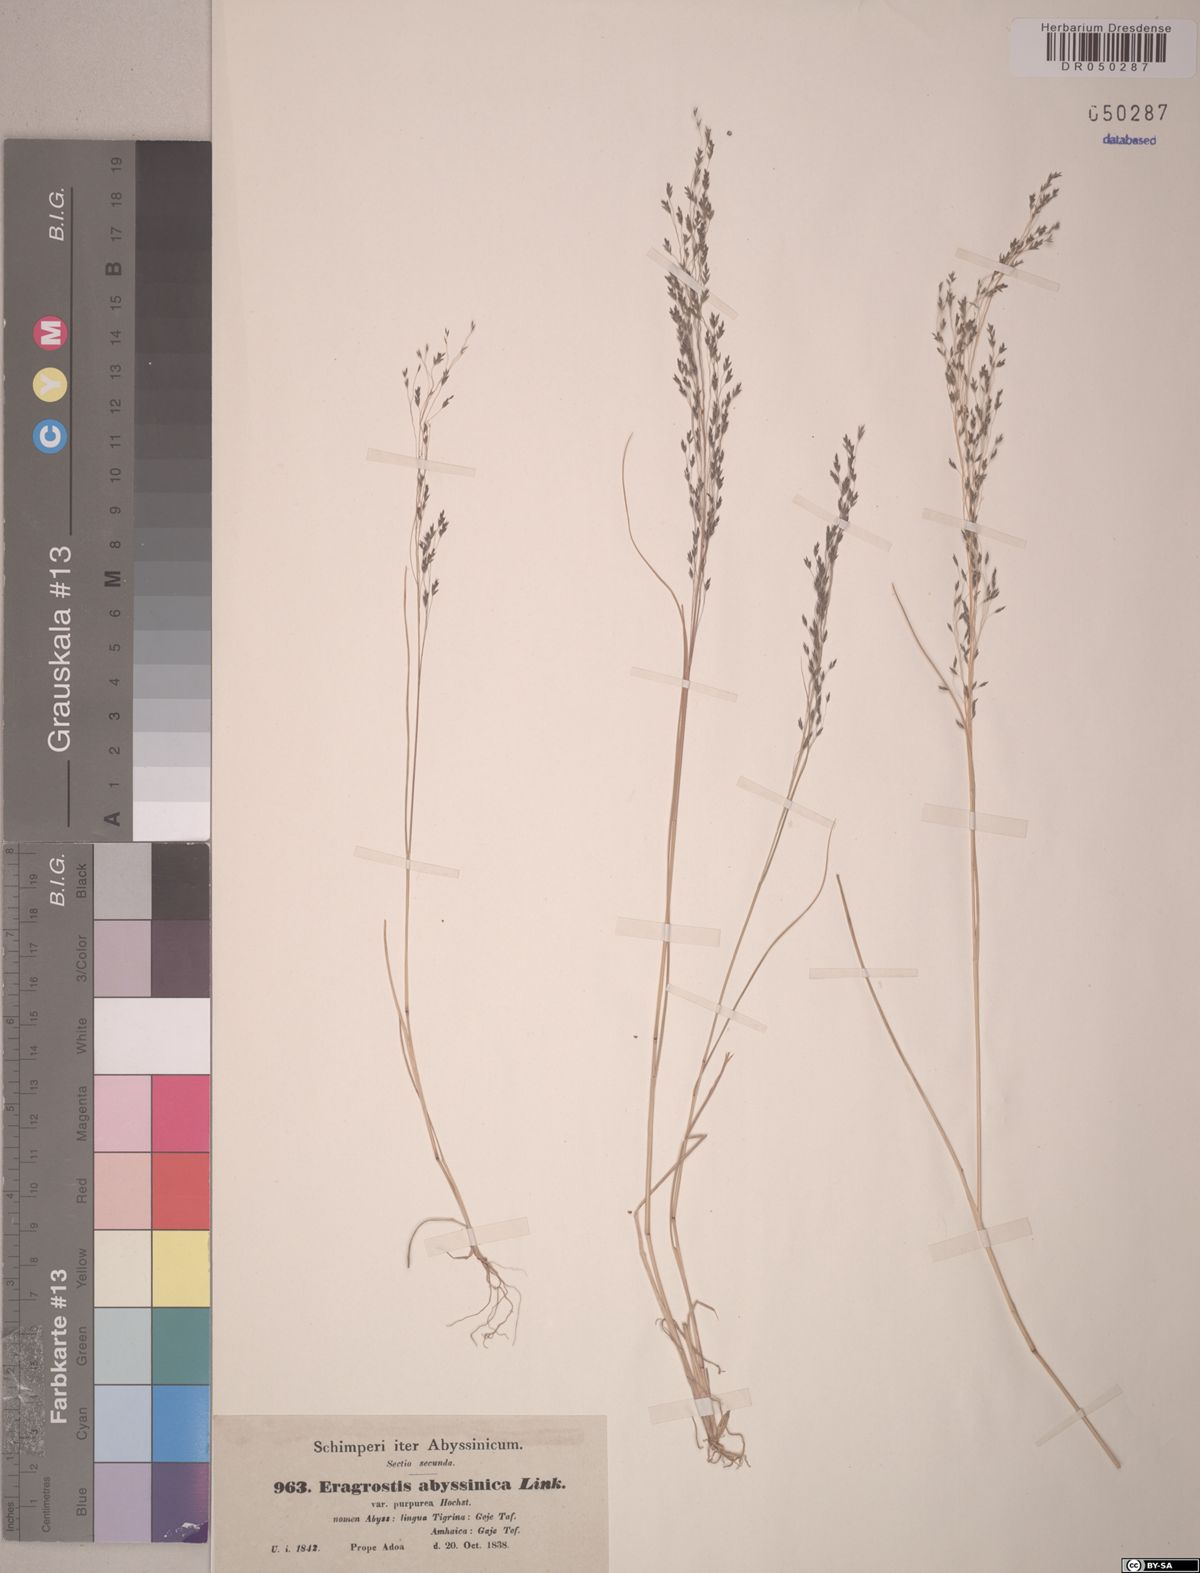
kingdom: Plantae
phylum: Tracheophyta
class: Liliopsida
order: Poales
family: Poaceae
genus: Eragrostis
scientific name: Eragrostis tef
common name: Teff
